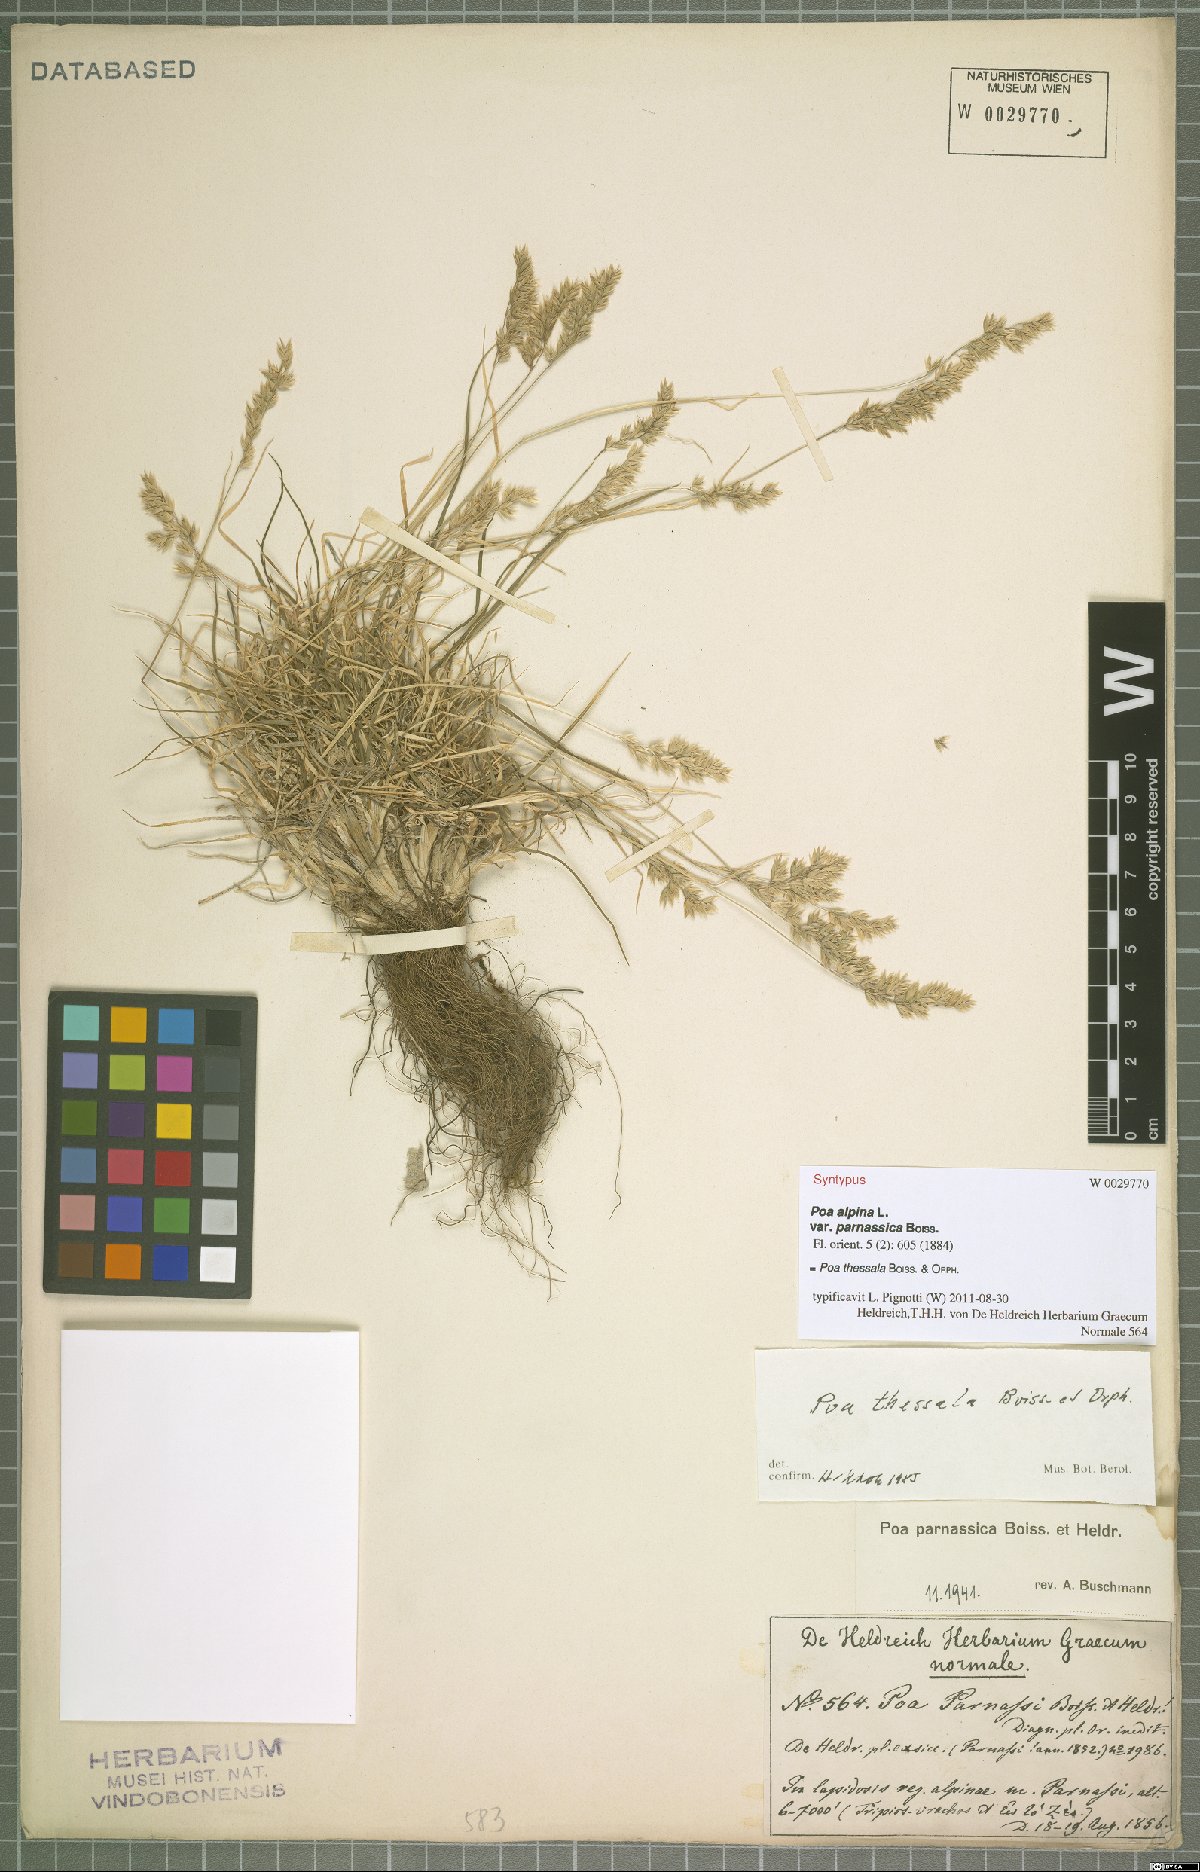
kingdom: Plantae
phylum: Tracheophyta
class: Liliopsida
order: Poales
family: Poaceae
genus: Poa
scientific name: Poa thessala
